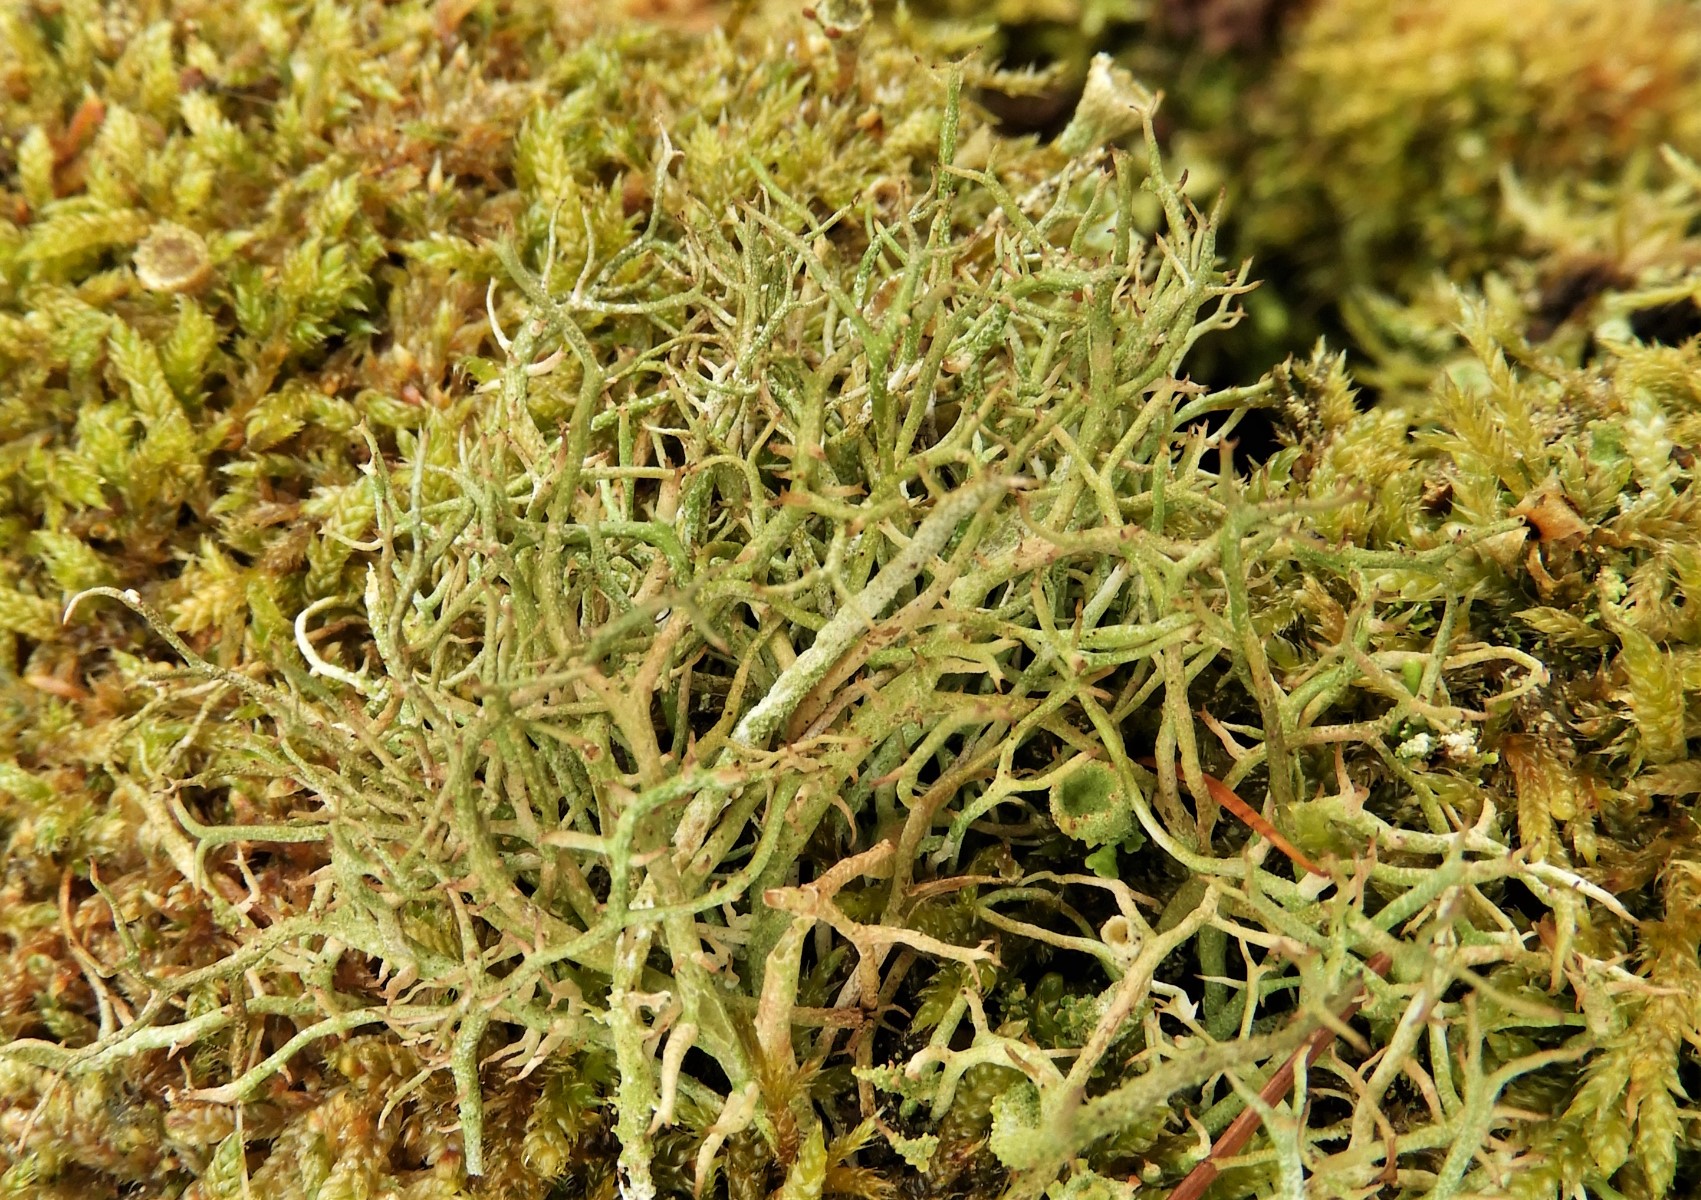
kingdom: Fungi
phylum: Ascomycota
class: Lecanoromycetes
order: Lecanorales
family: Cladoniaceae
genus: Cladonia
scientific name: Cladonia furcata
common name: kløftet bægerlav
